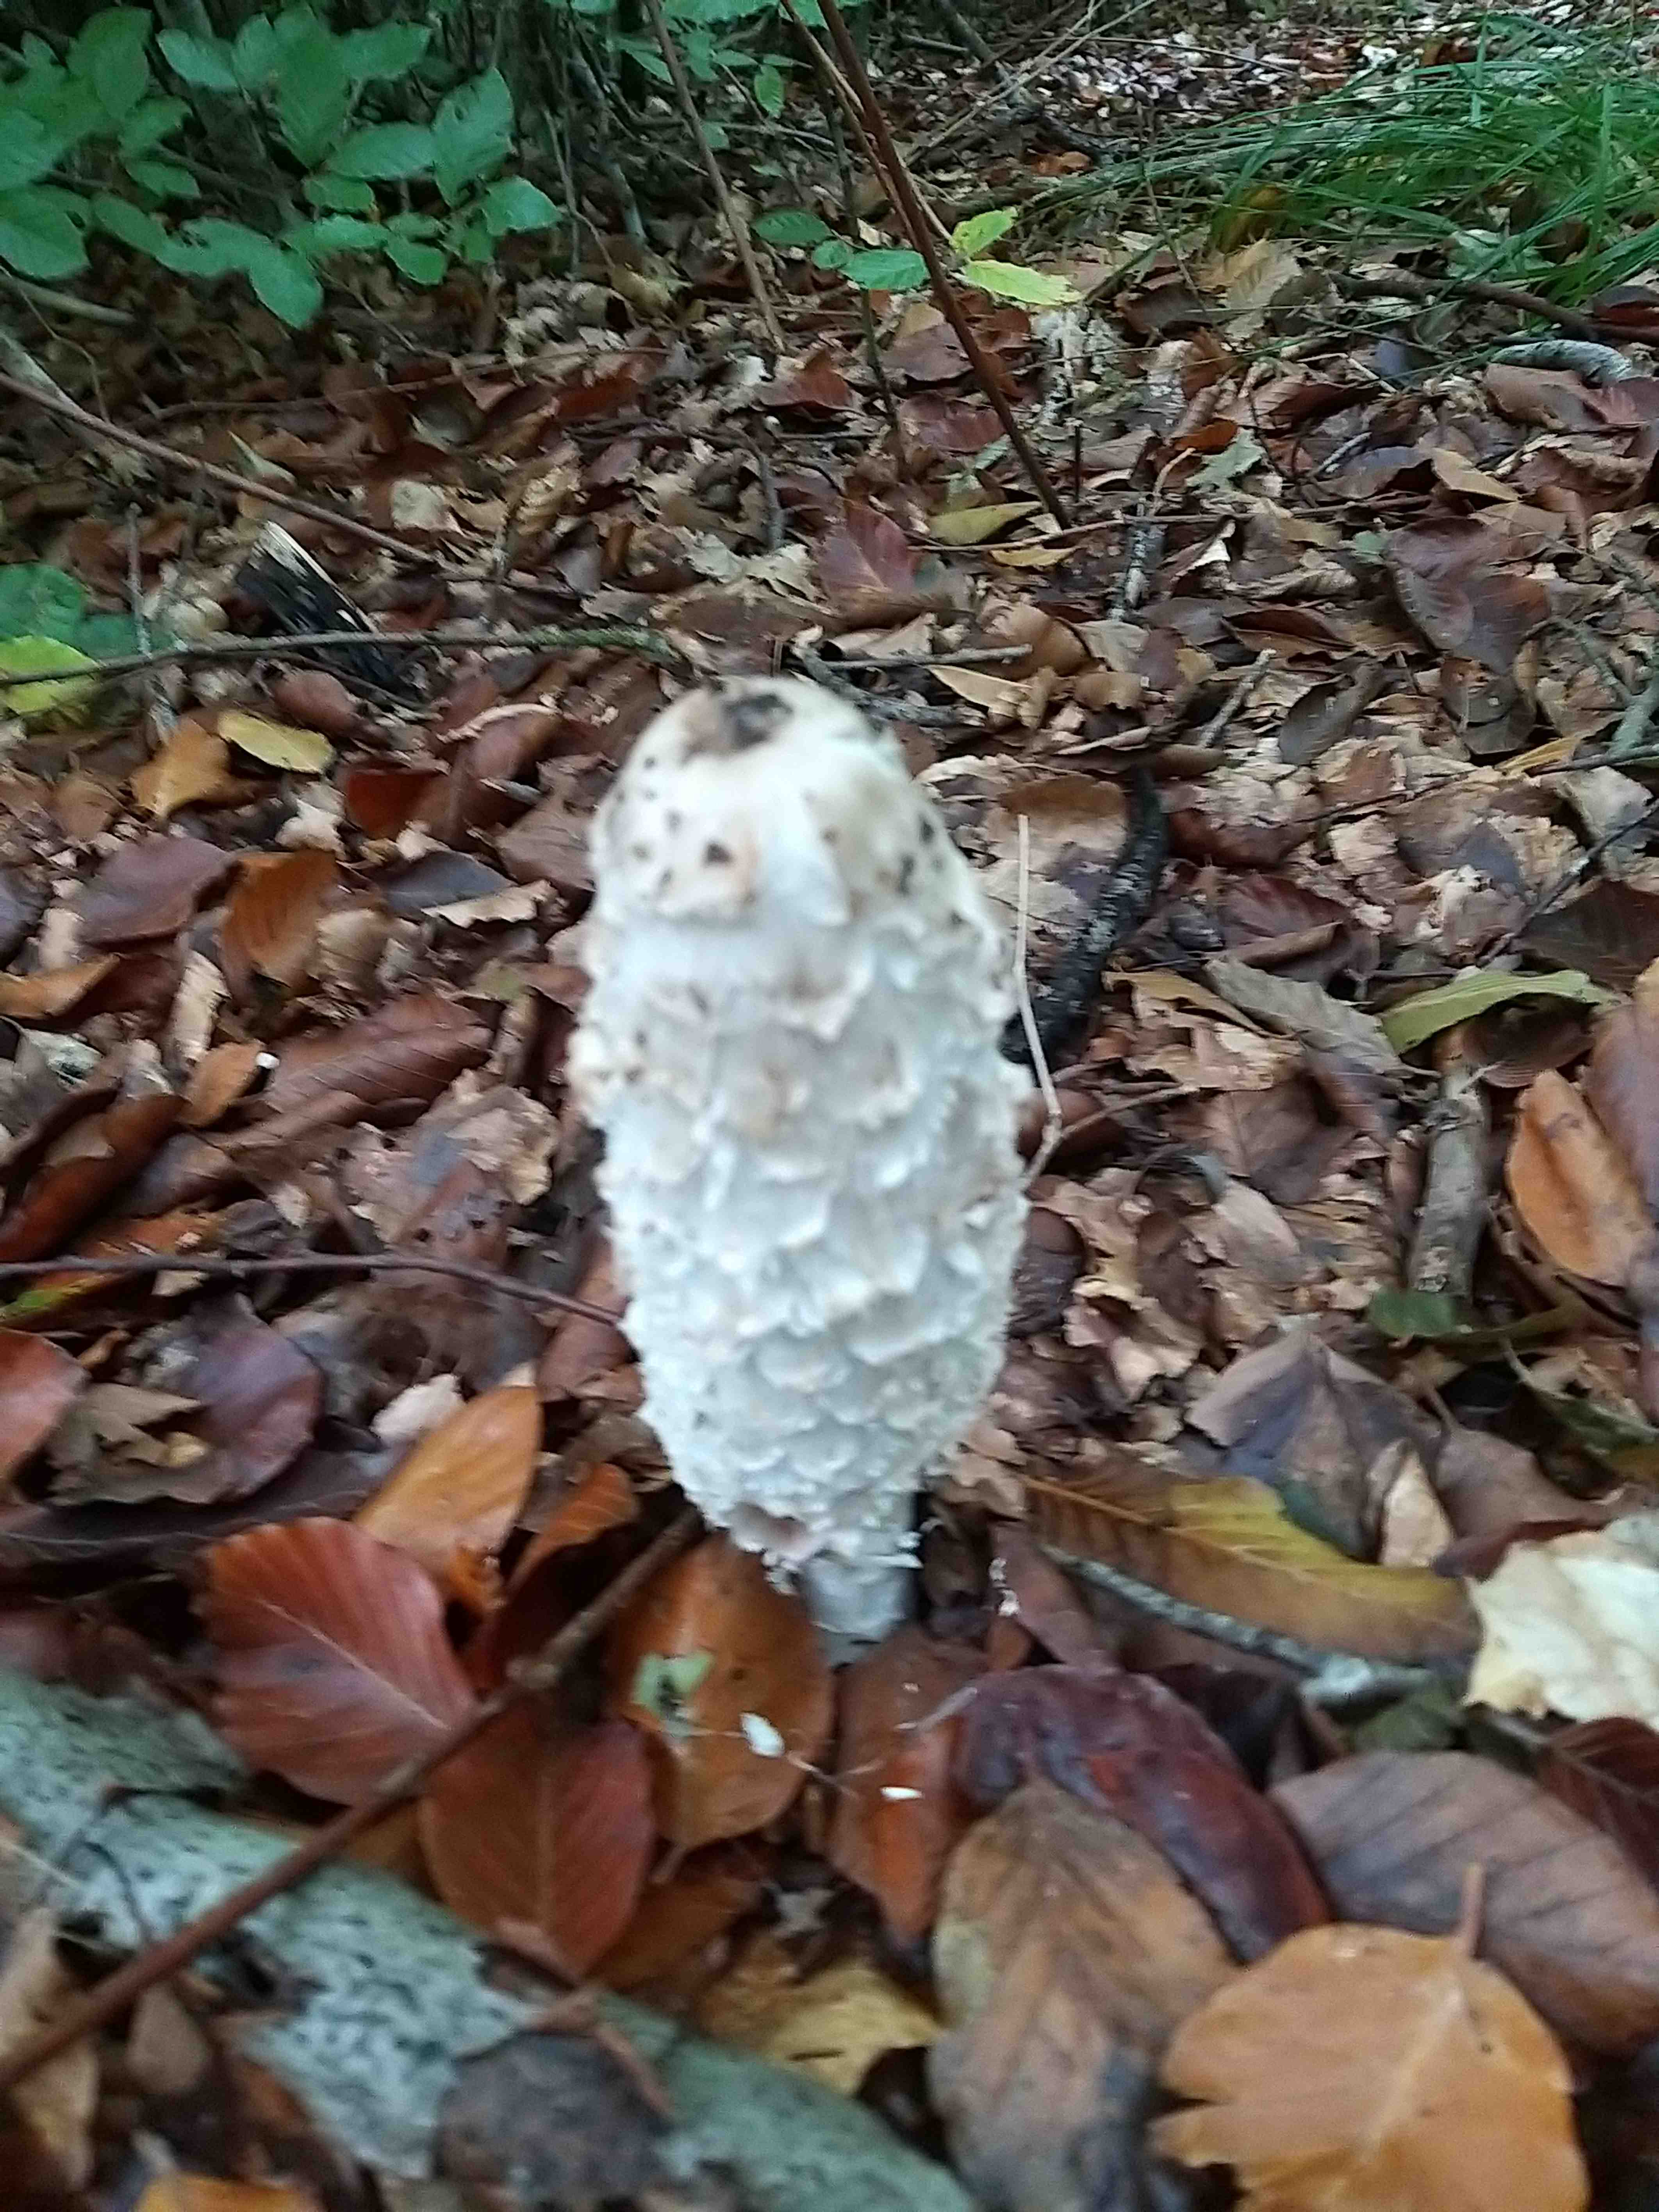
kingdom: Fungi
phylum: Basidiomycota
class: Agaricomycetes
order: Agaricales
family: Agaricaceae
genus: Coprinus
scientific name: Coprinus comatus
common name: stor parykhat
